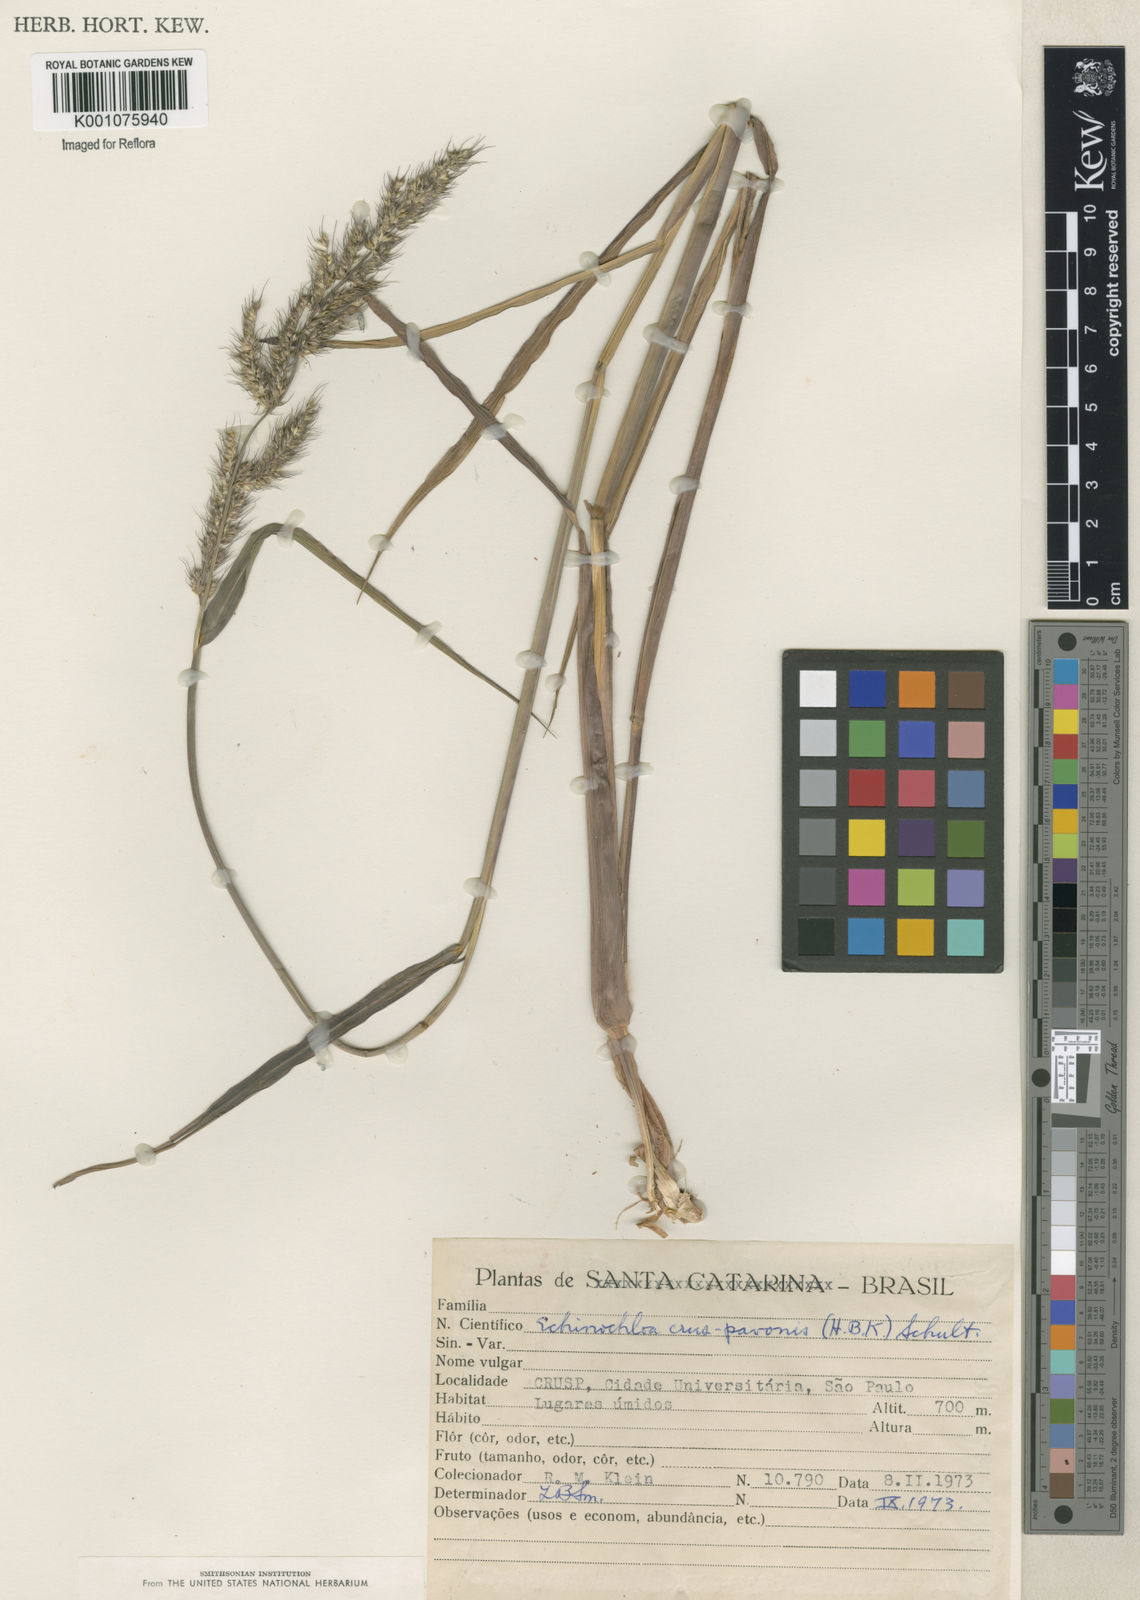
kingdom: Plantae
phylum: Tracheophyta
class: Liliopsida
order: Poales
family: Poaceae
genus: Echinochloa
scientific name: Echinochloa crus-pavonis
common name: Gulf cockspur grass
